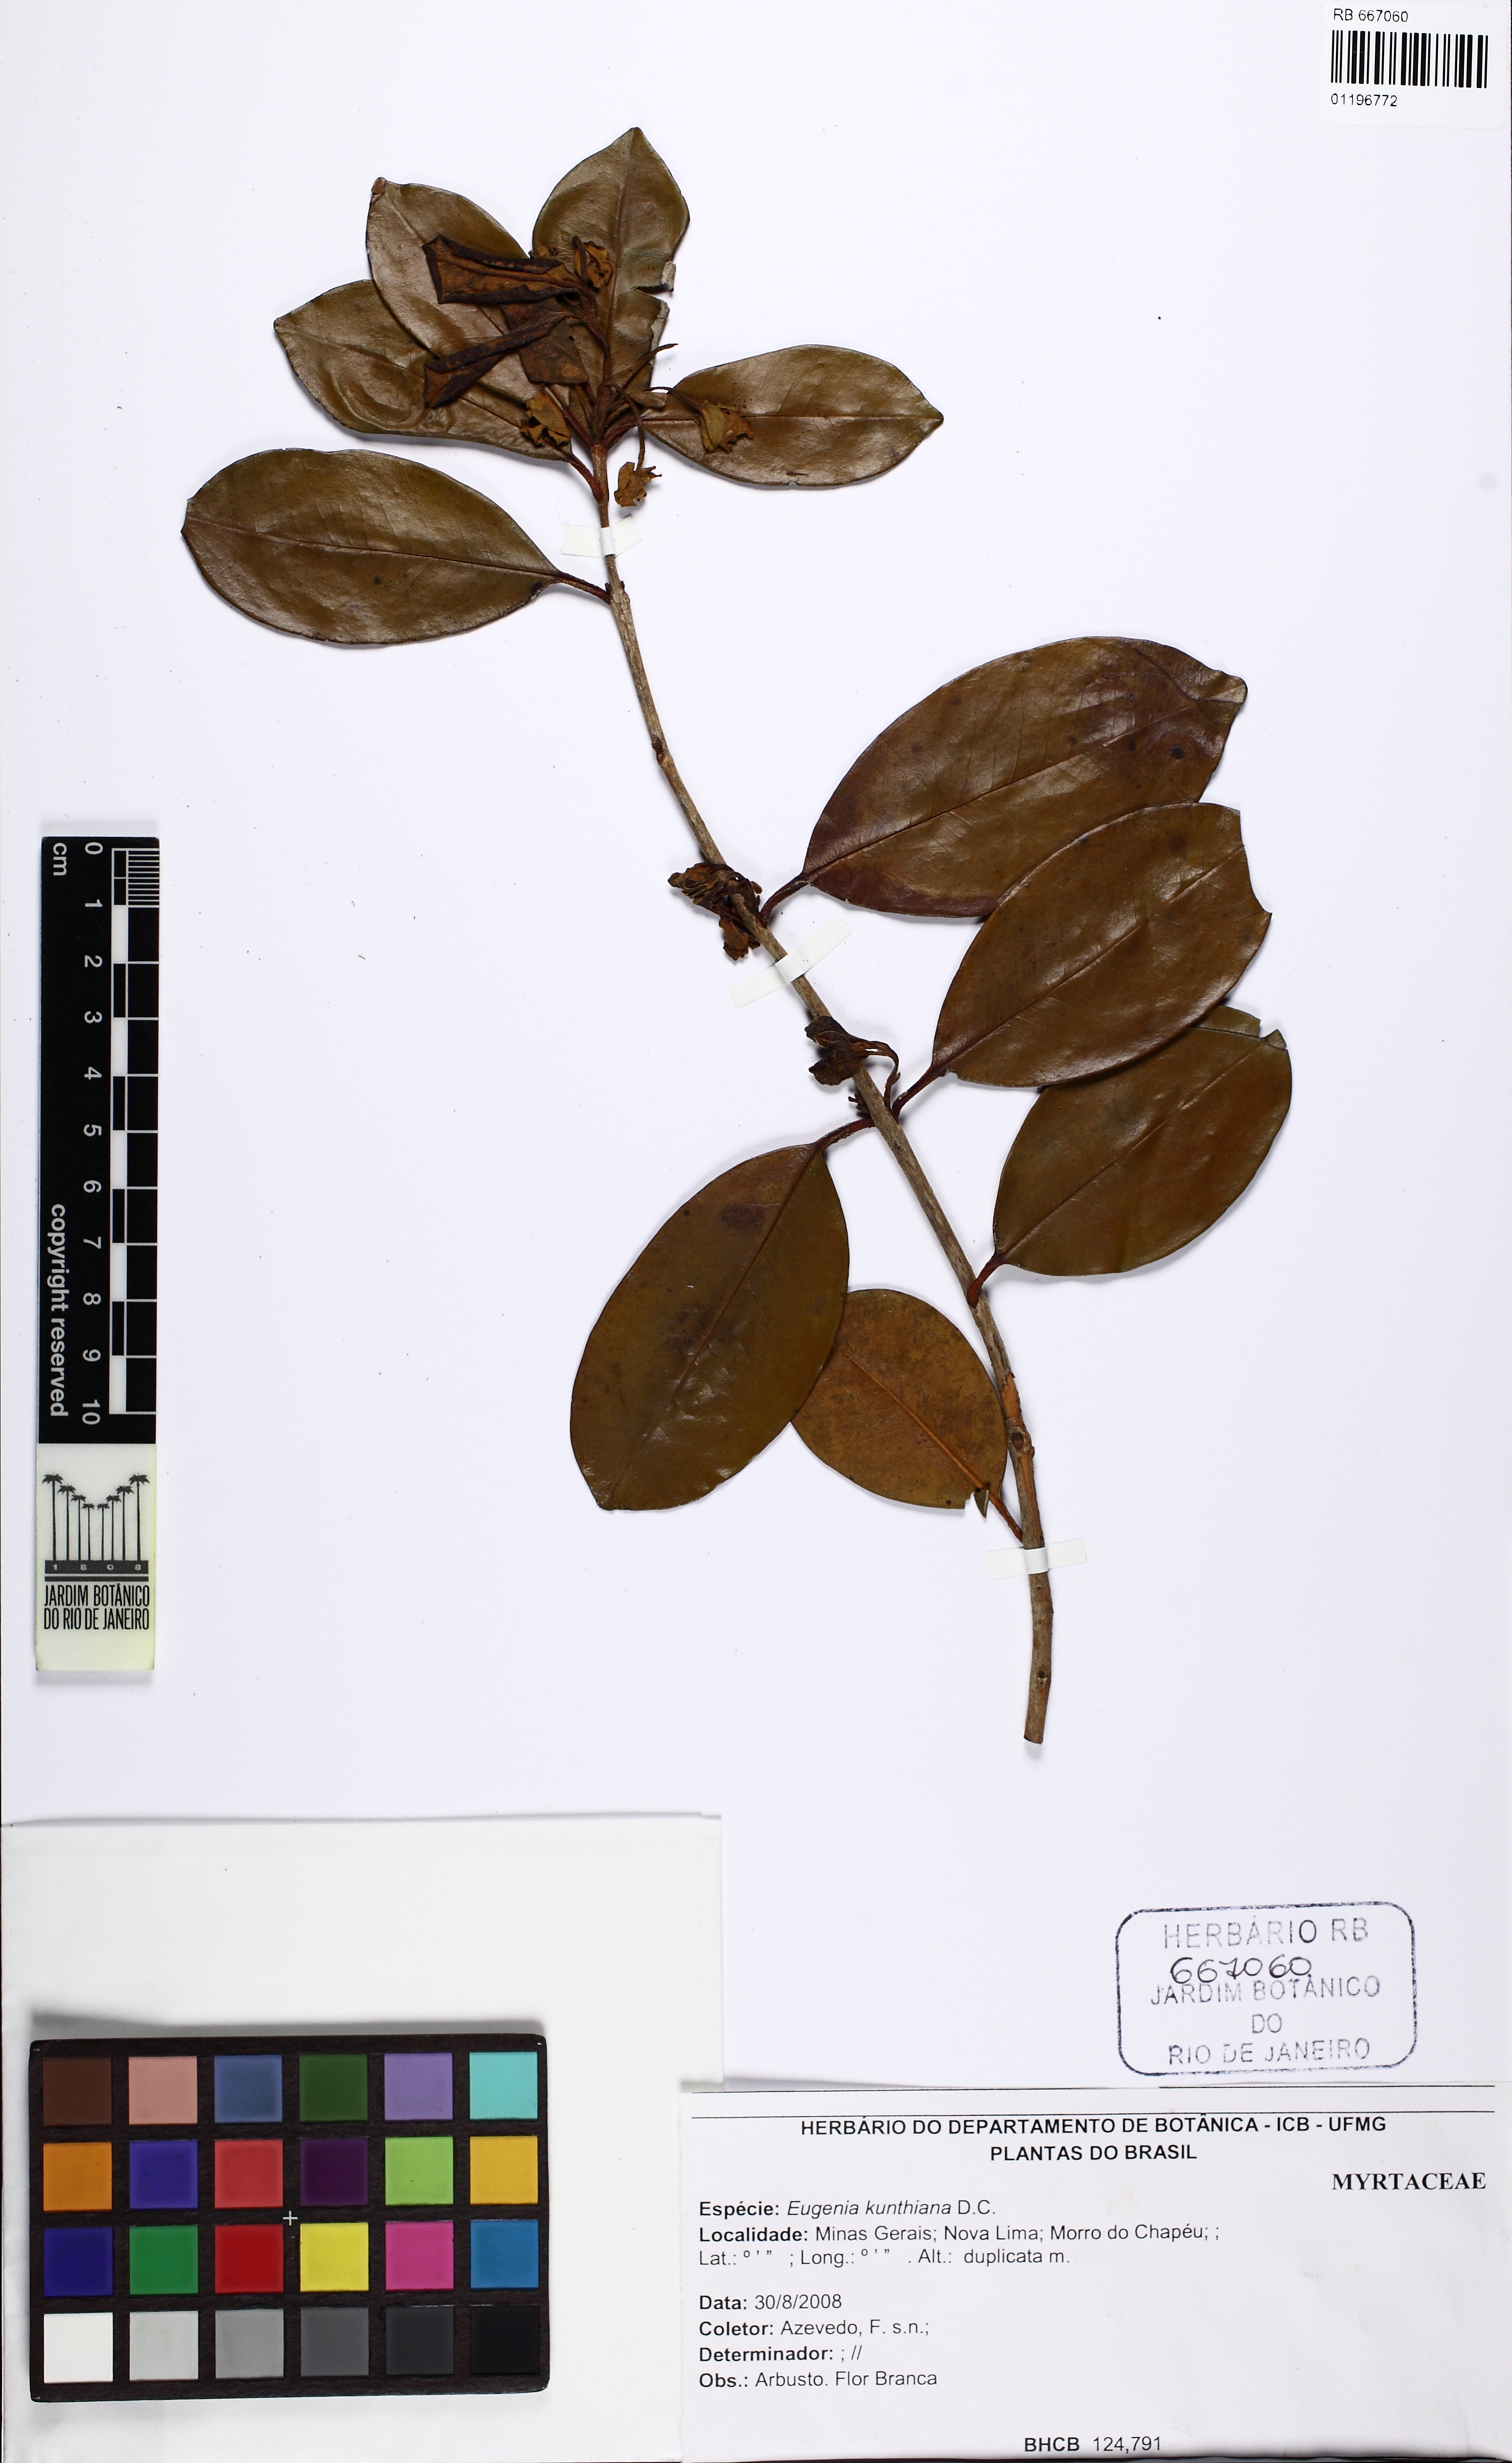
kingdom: Plantae
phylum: Tracheophyta
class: Magnoliopsida
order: Myrtales
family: Myrtaceae
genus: Eugenia
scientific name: Eugenia punicifolia
